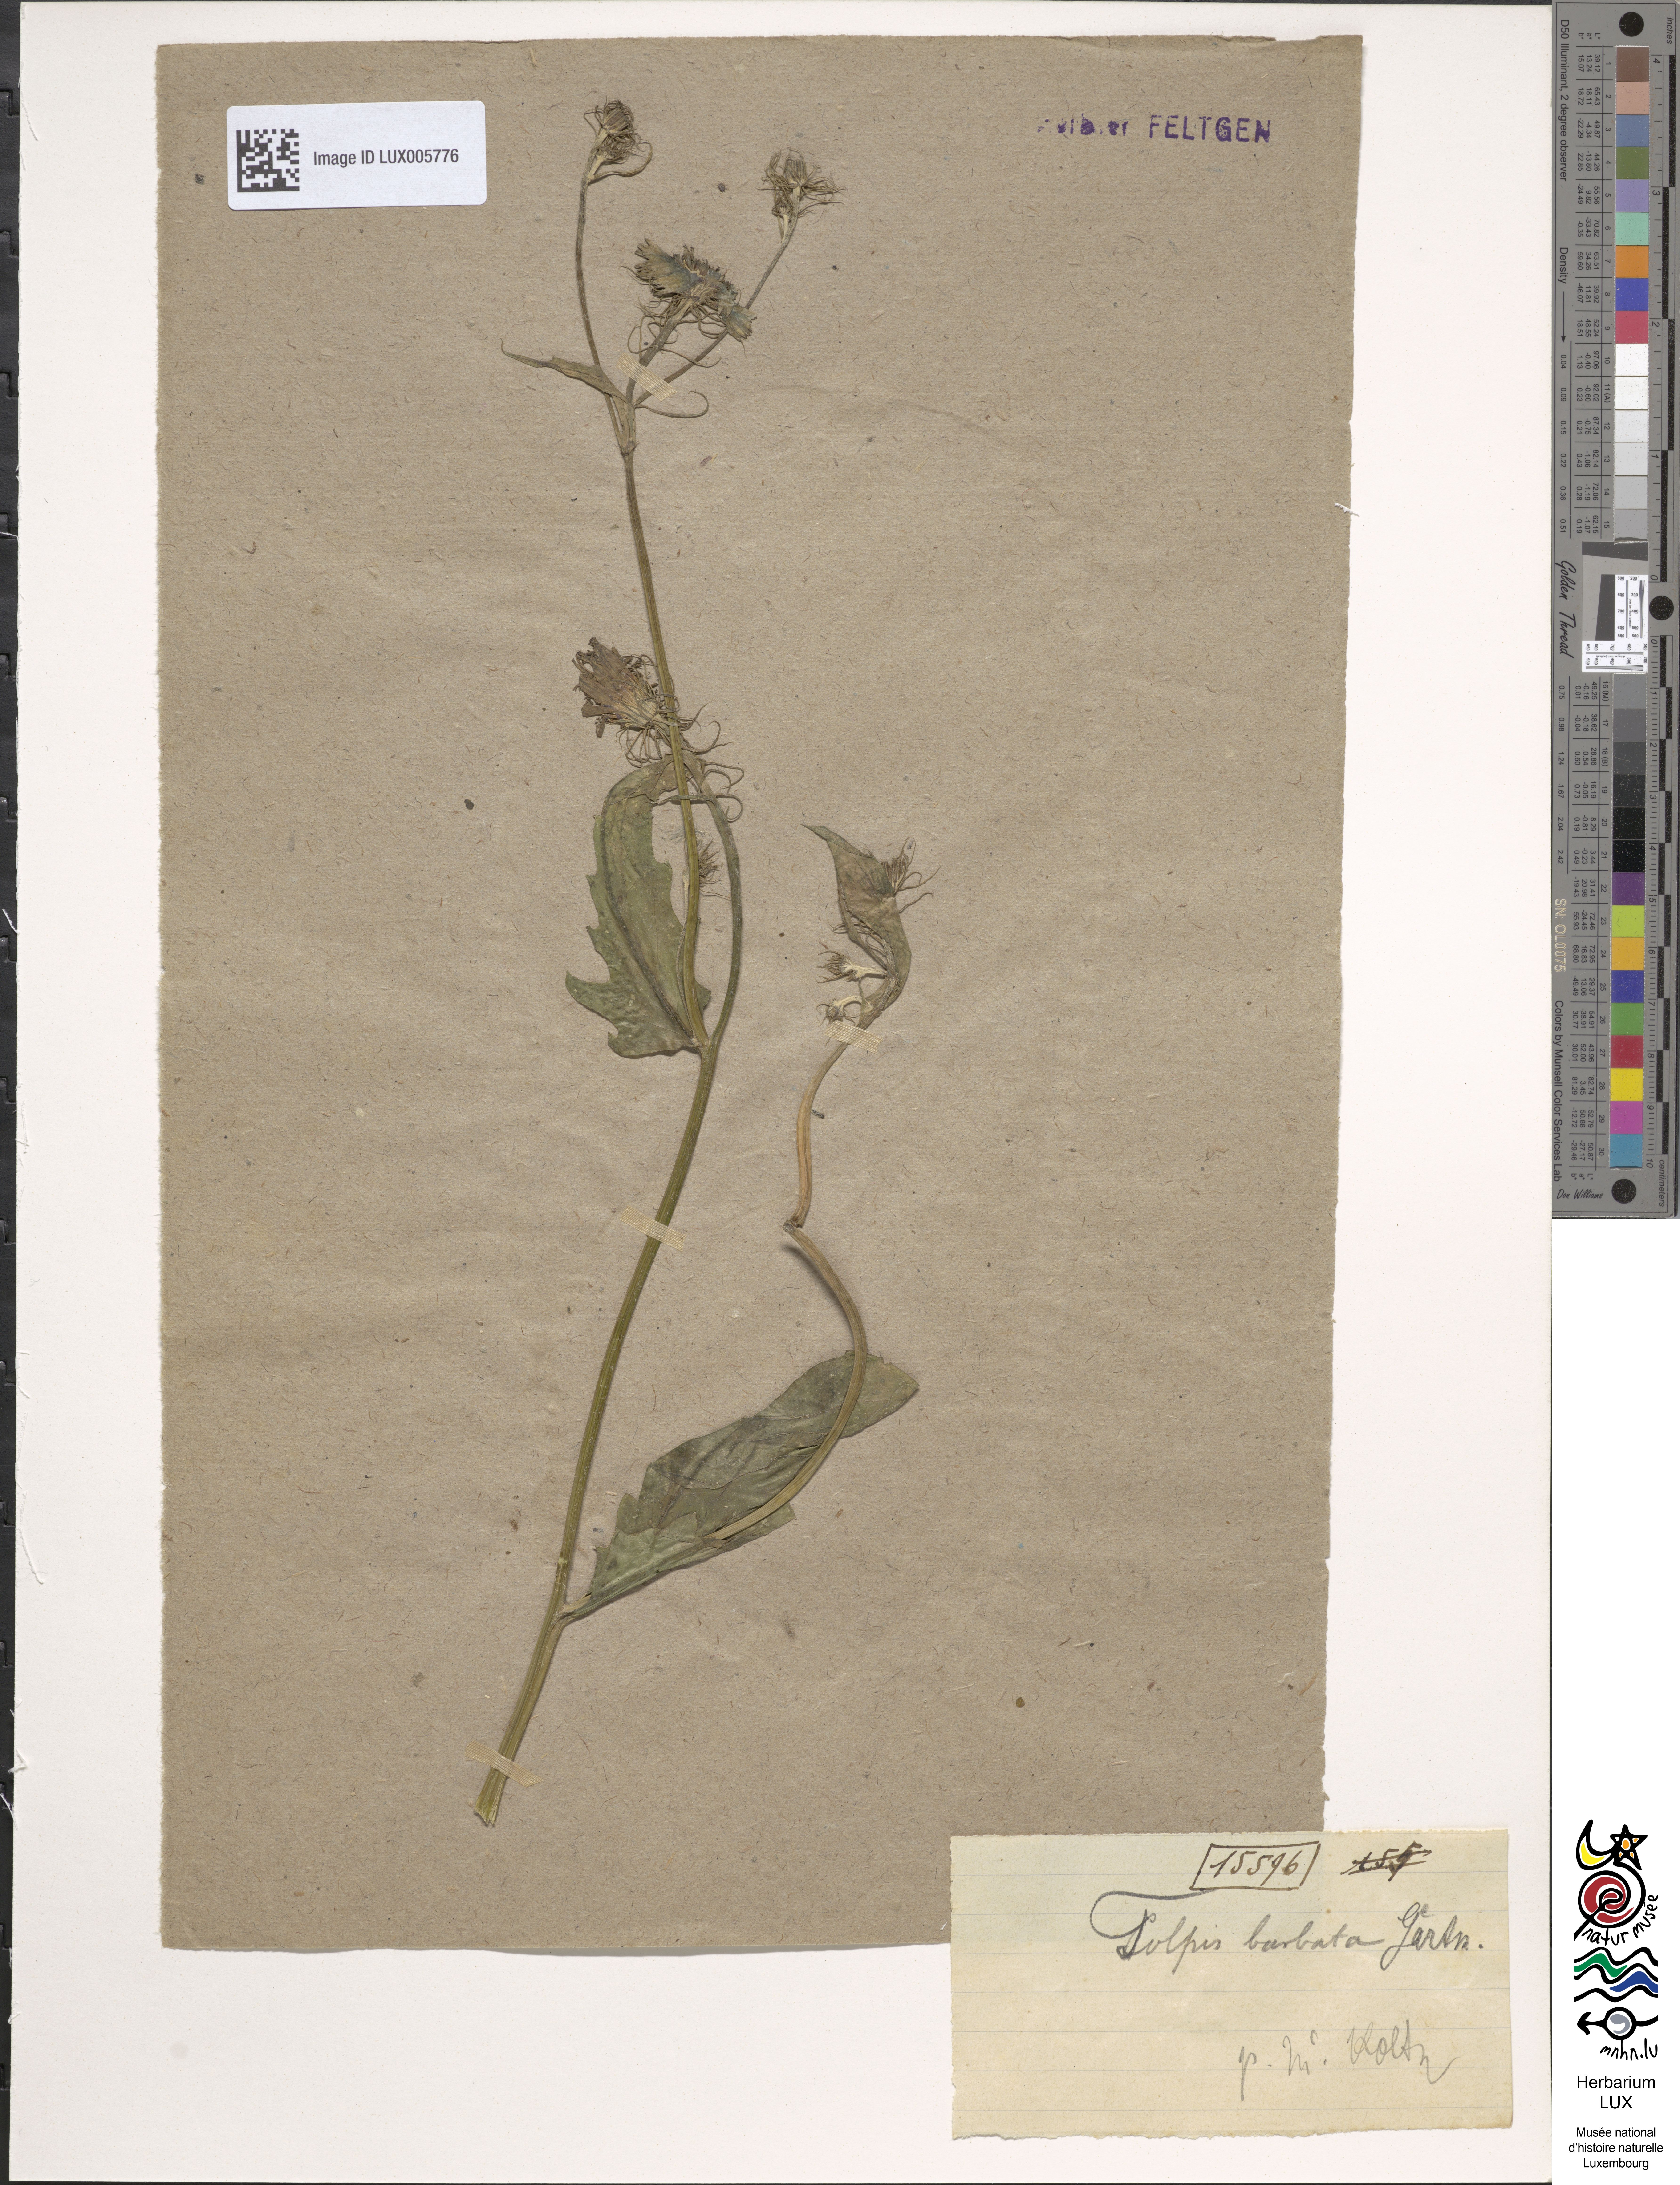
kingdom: Plantae
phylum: Tracheophyta
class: Magnoliopsida
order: Asterales
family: Asteraceae
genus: Tolpis
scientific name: Tolpis barbata
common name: Yellow hawkweed
